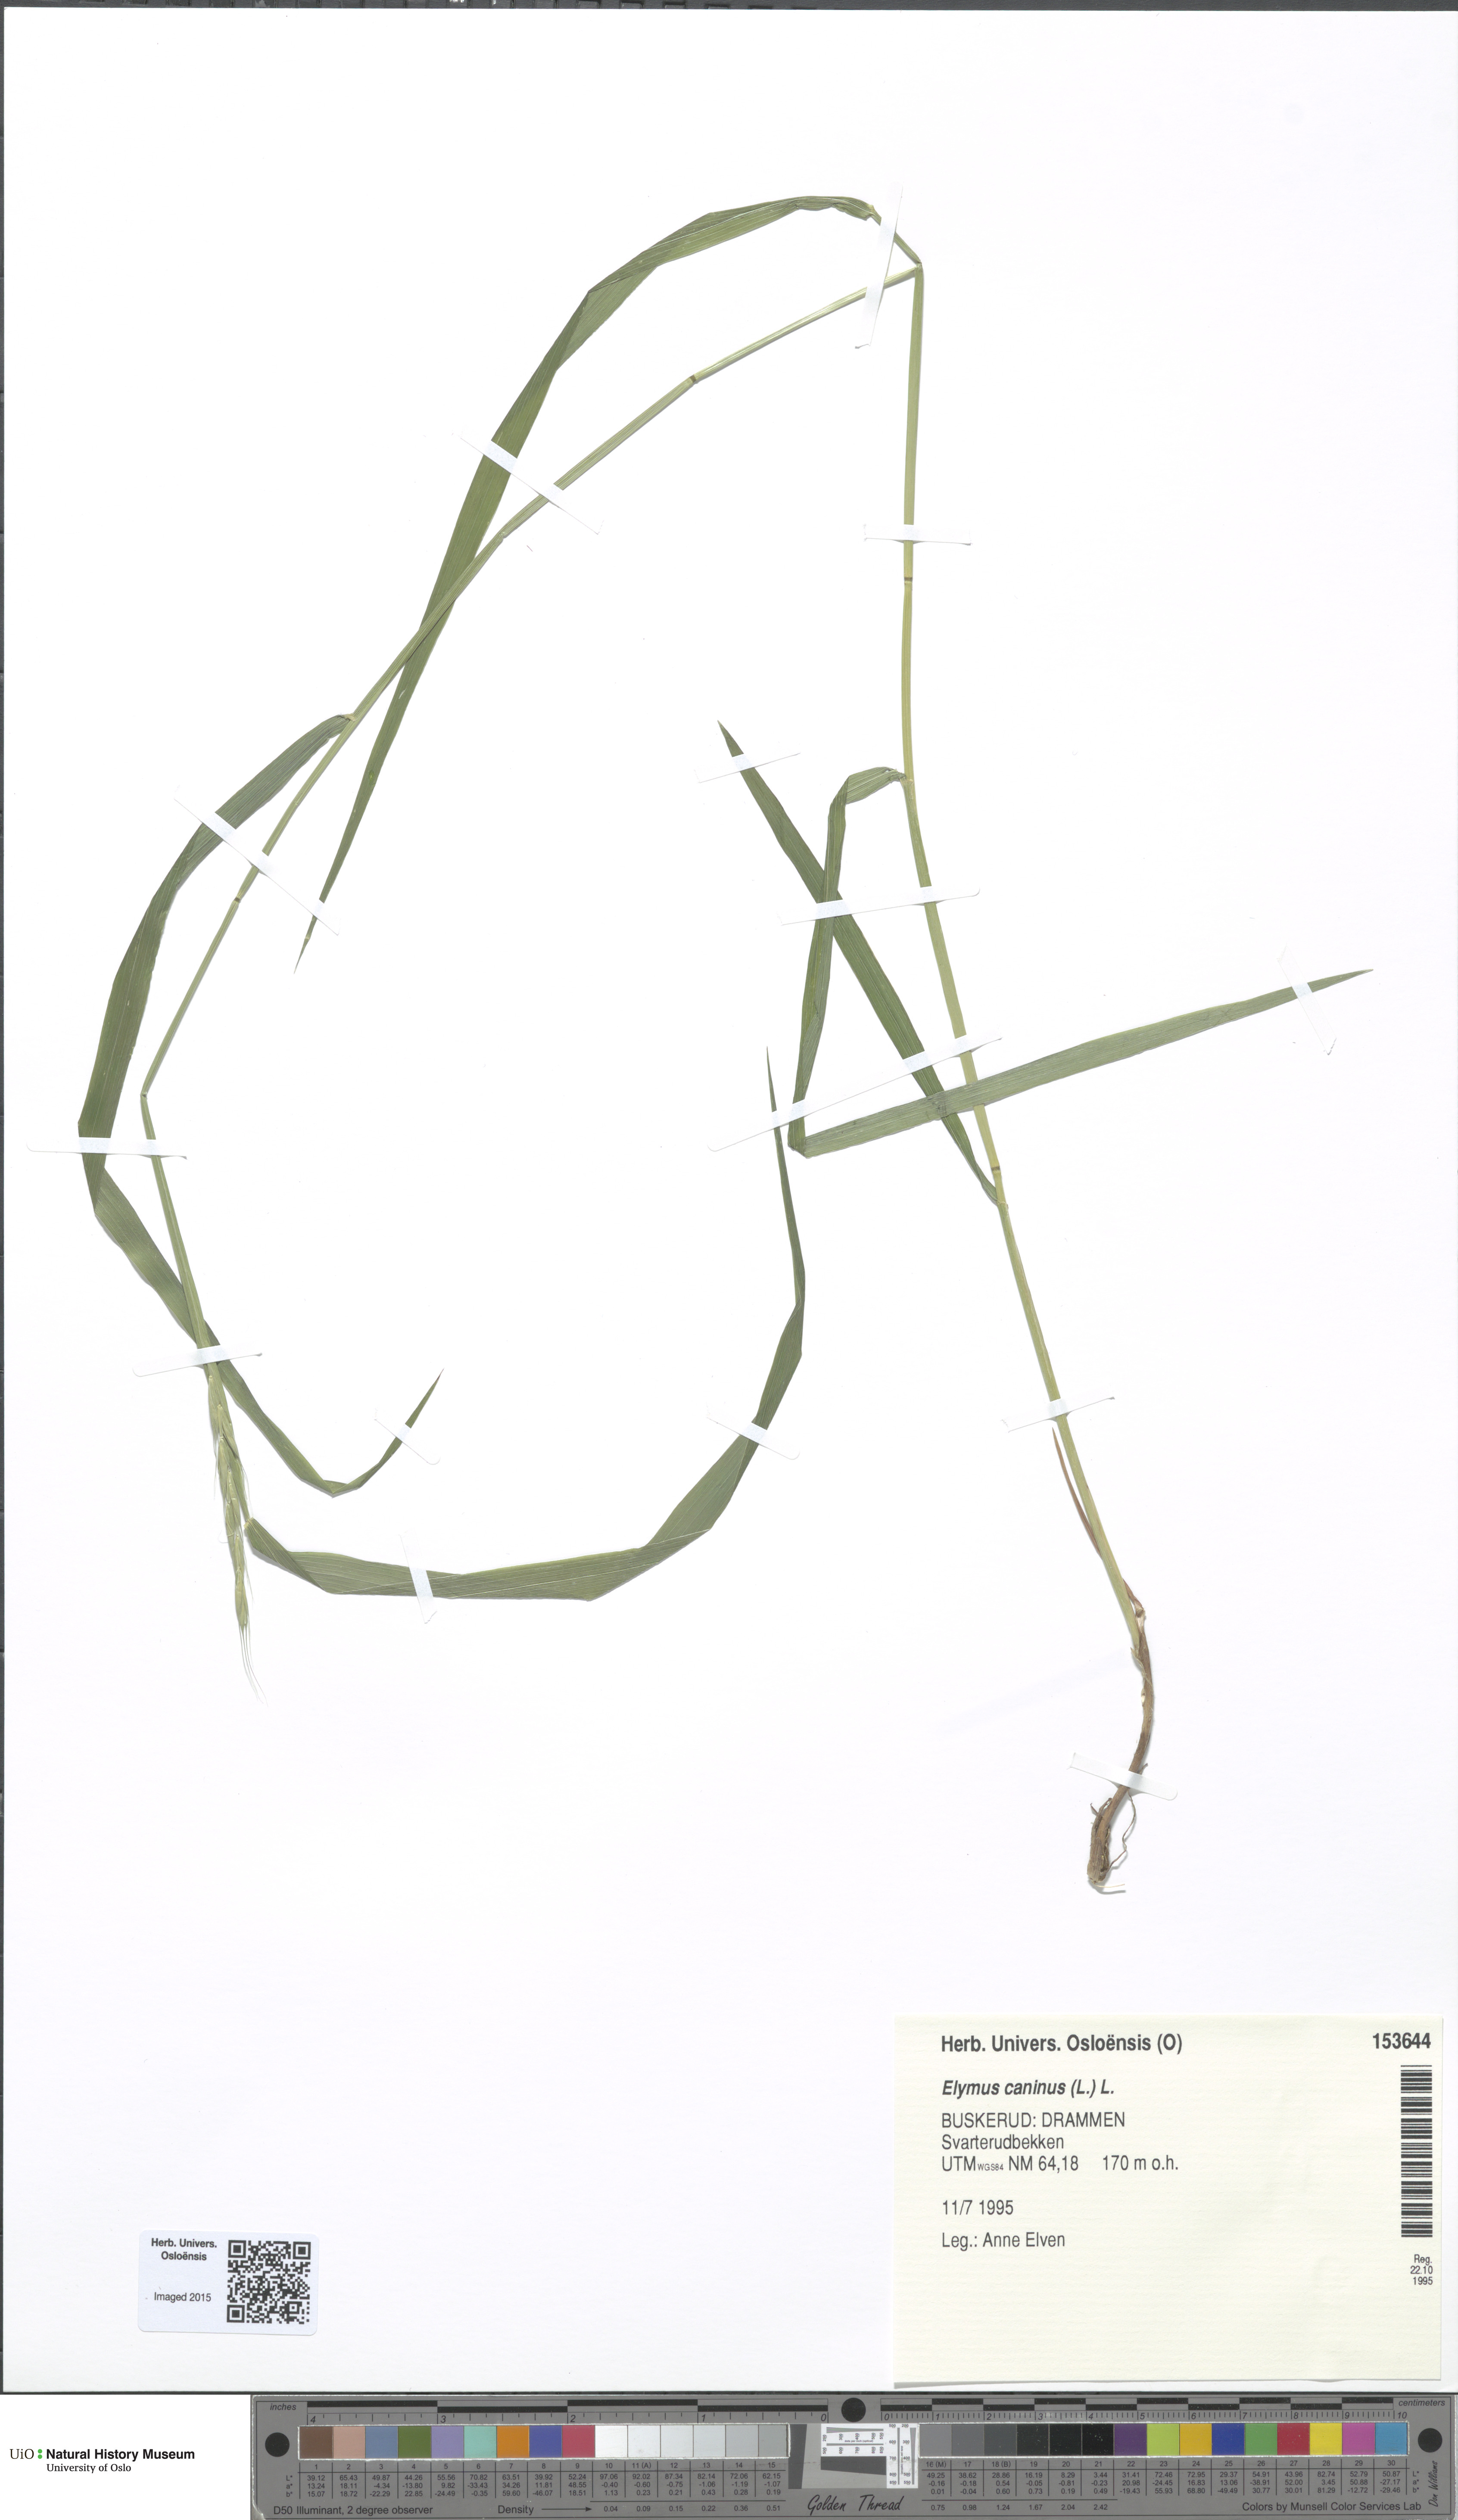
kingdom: Plantae
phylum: Tracheophyta
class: Liliopsida
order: Poales
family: Poaceae
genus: Elymus
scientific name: Elymus caninus
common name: Bearded couch
